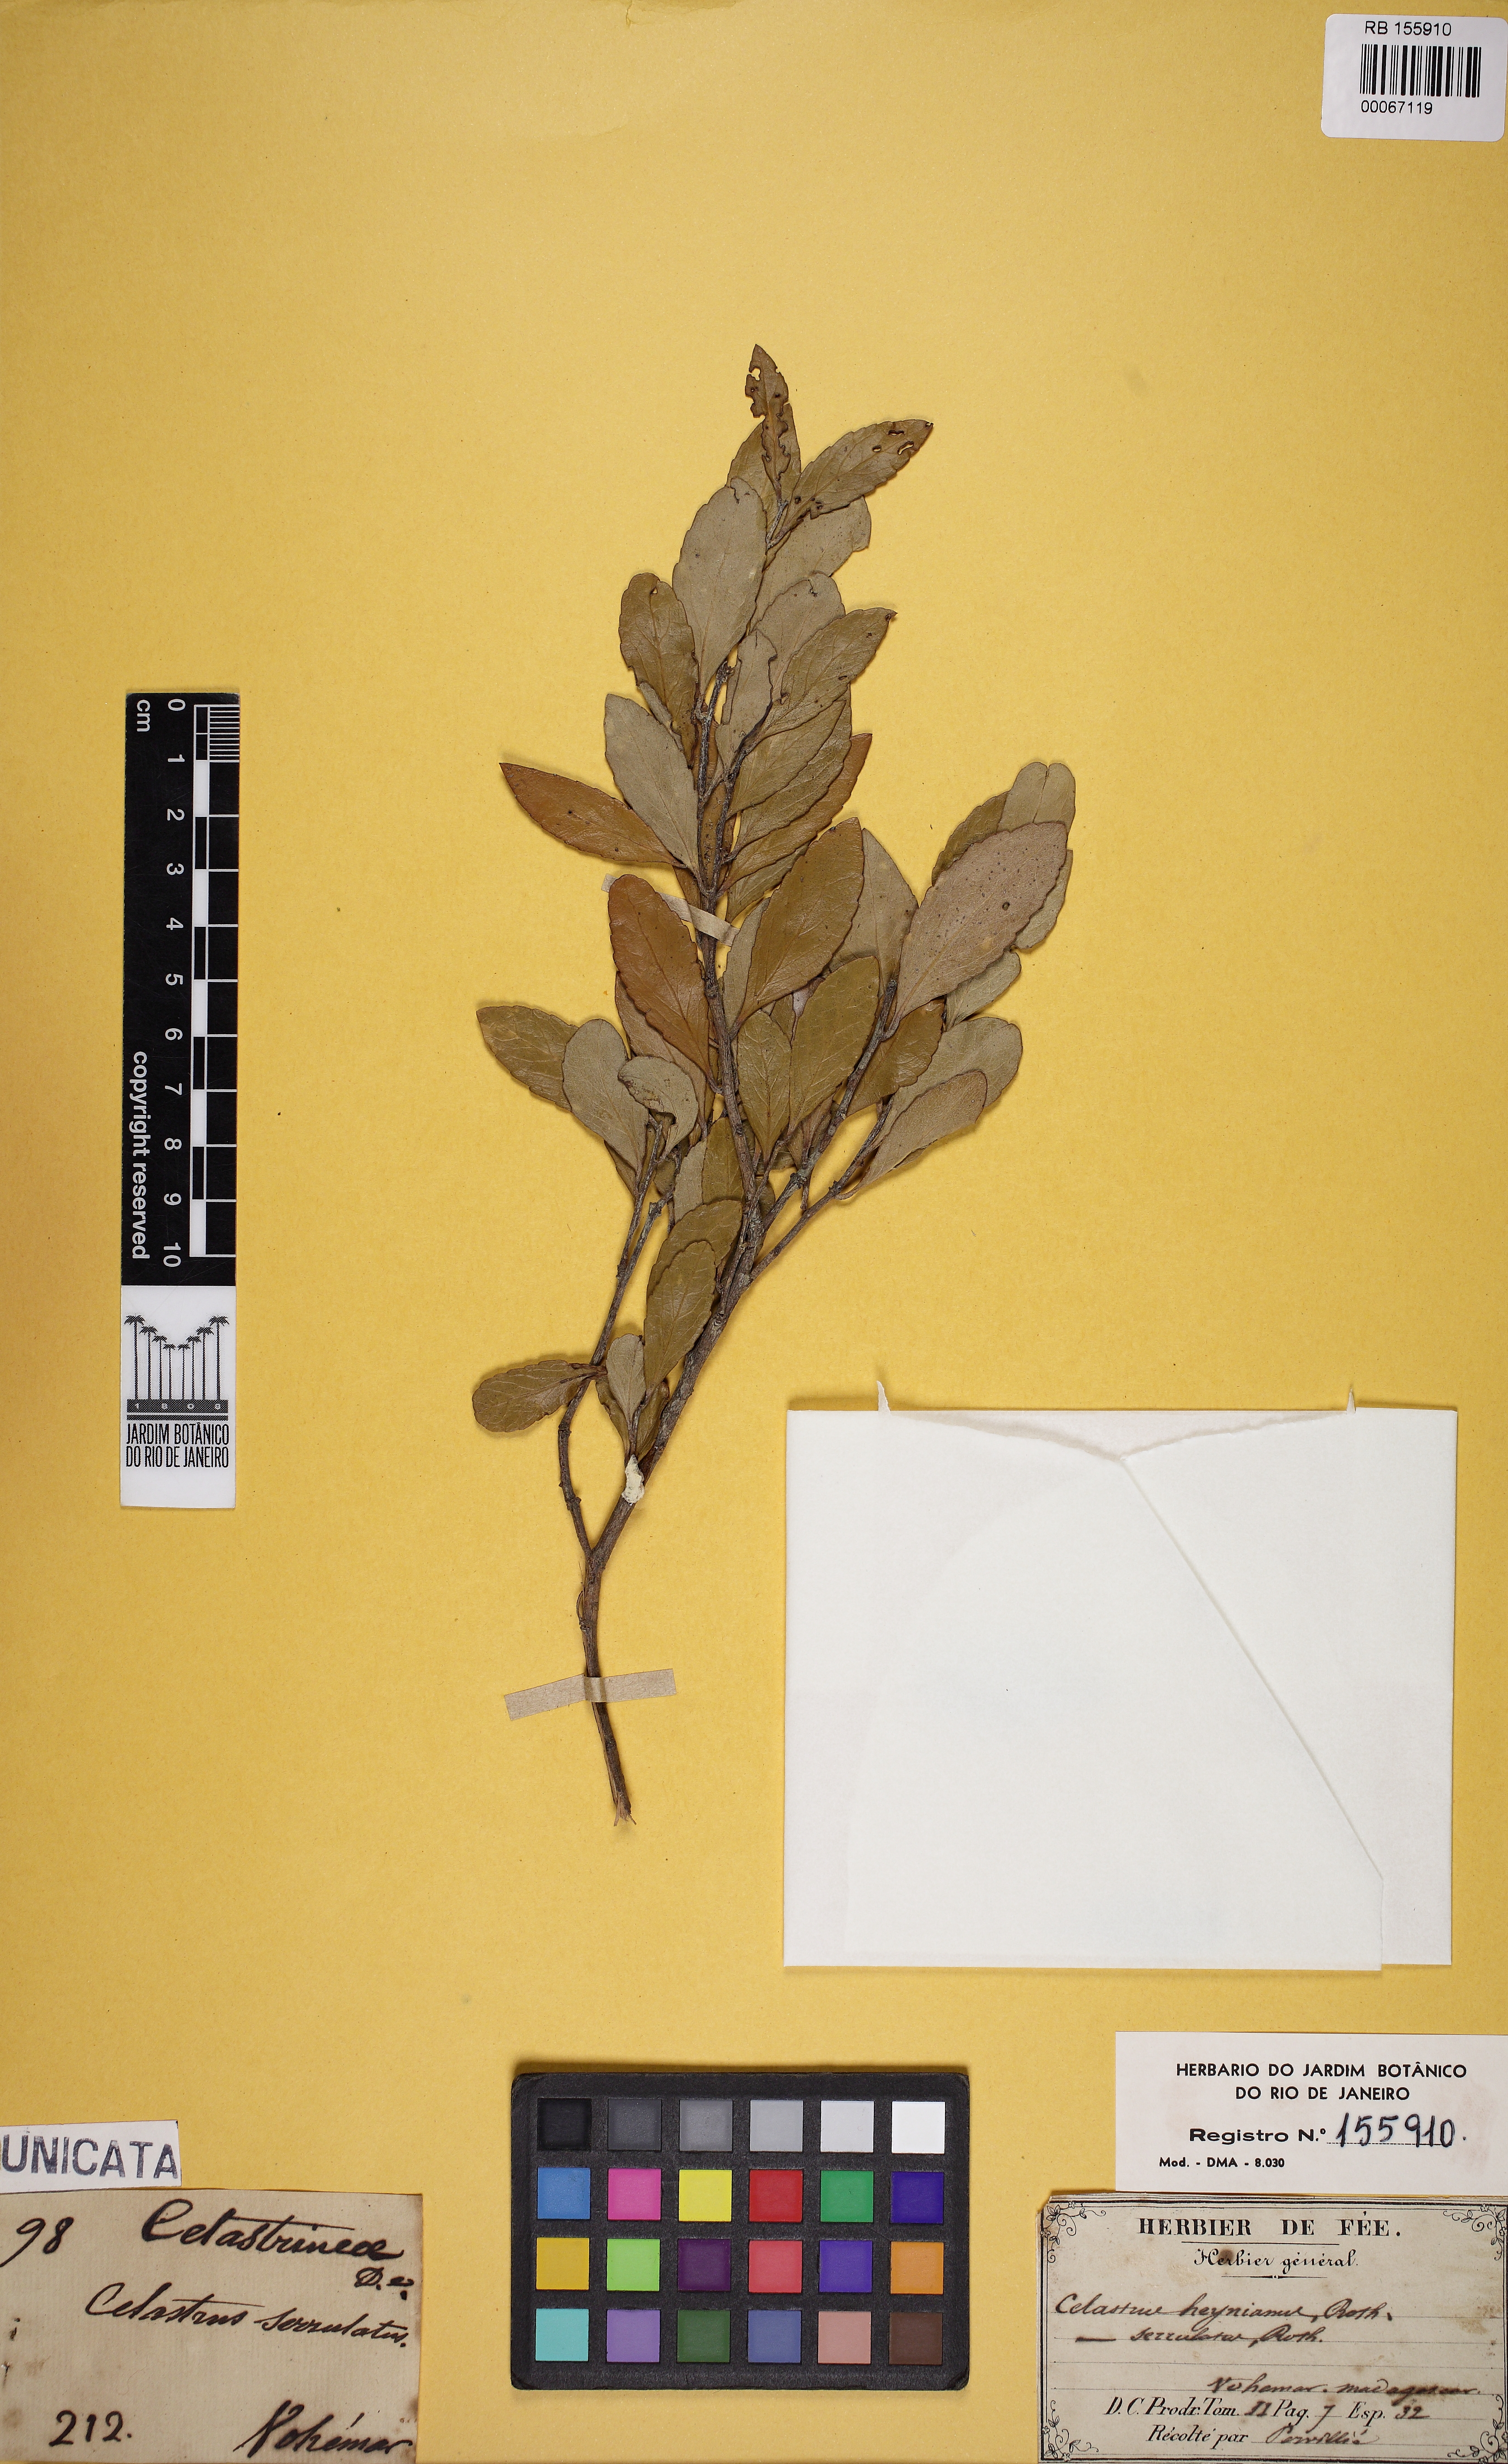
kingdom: Plantae
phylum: Tracheophyta
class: Magnoliopsida
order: Celastrales
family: Celastraceae
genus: Gymnosporia
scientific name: Gymnosporia heyneana
